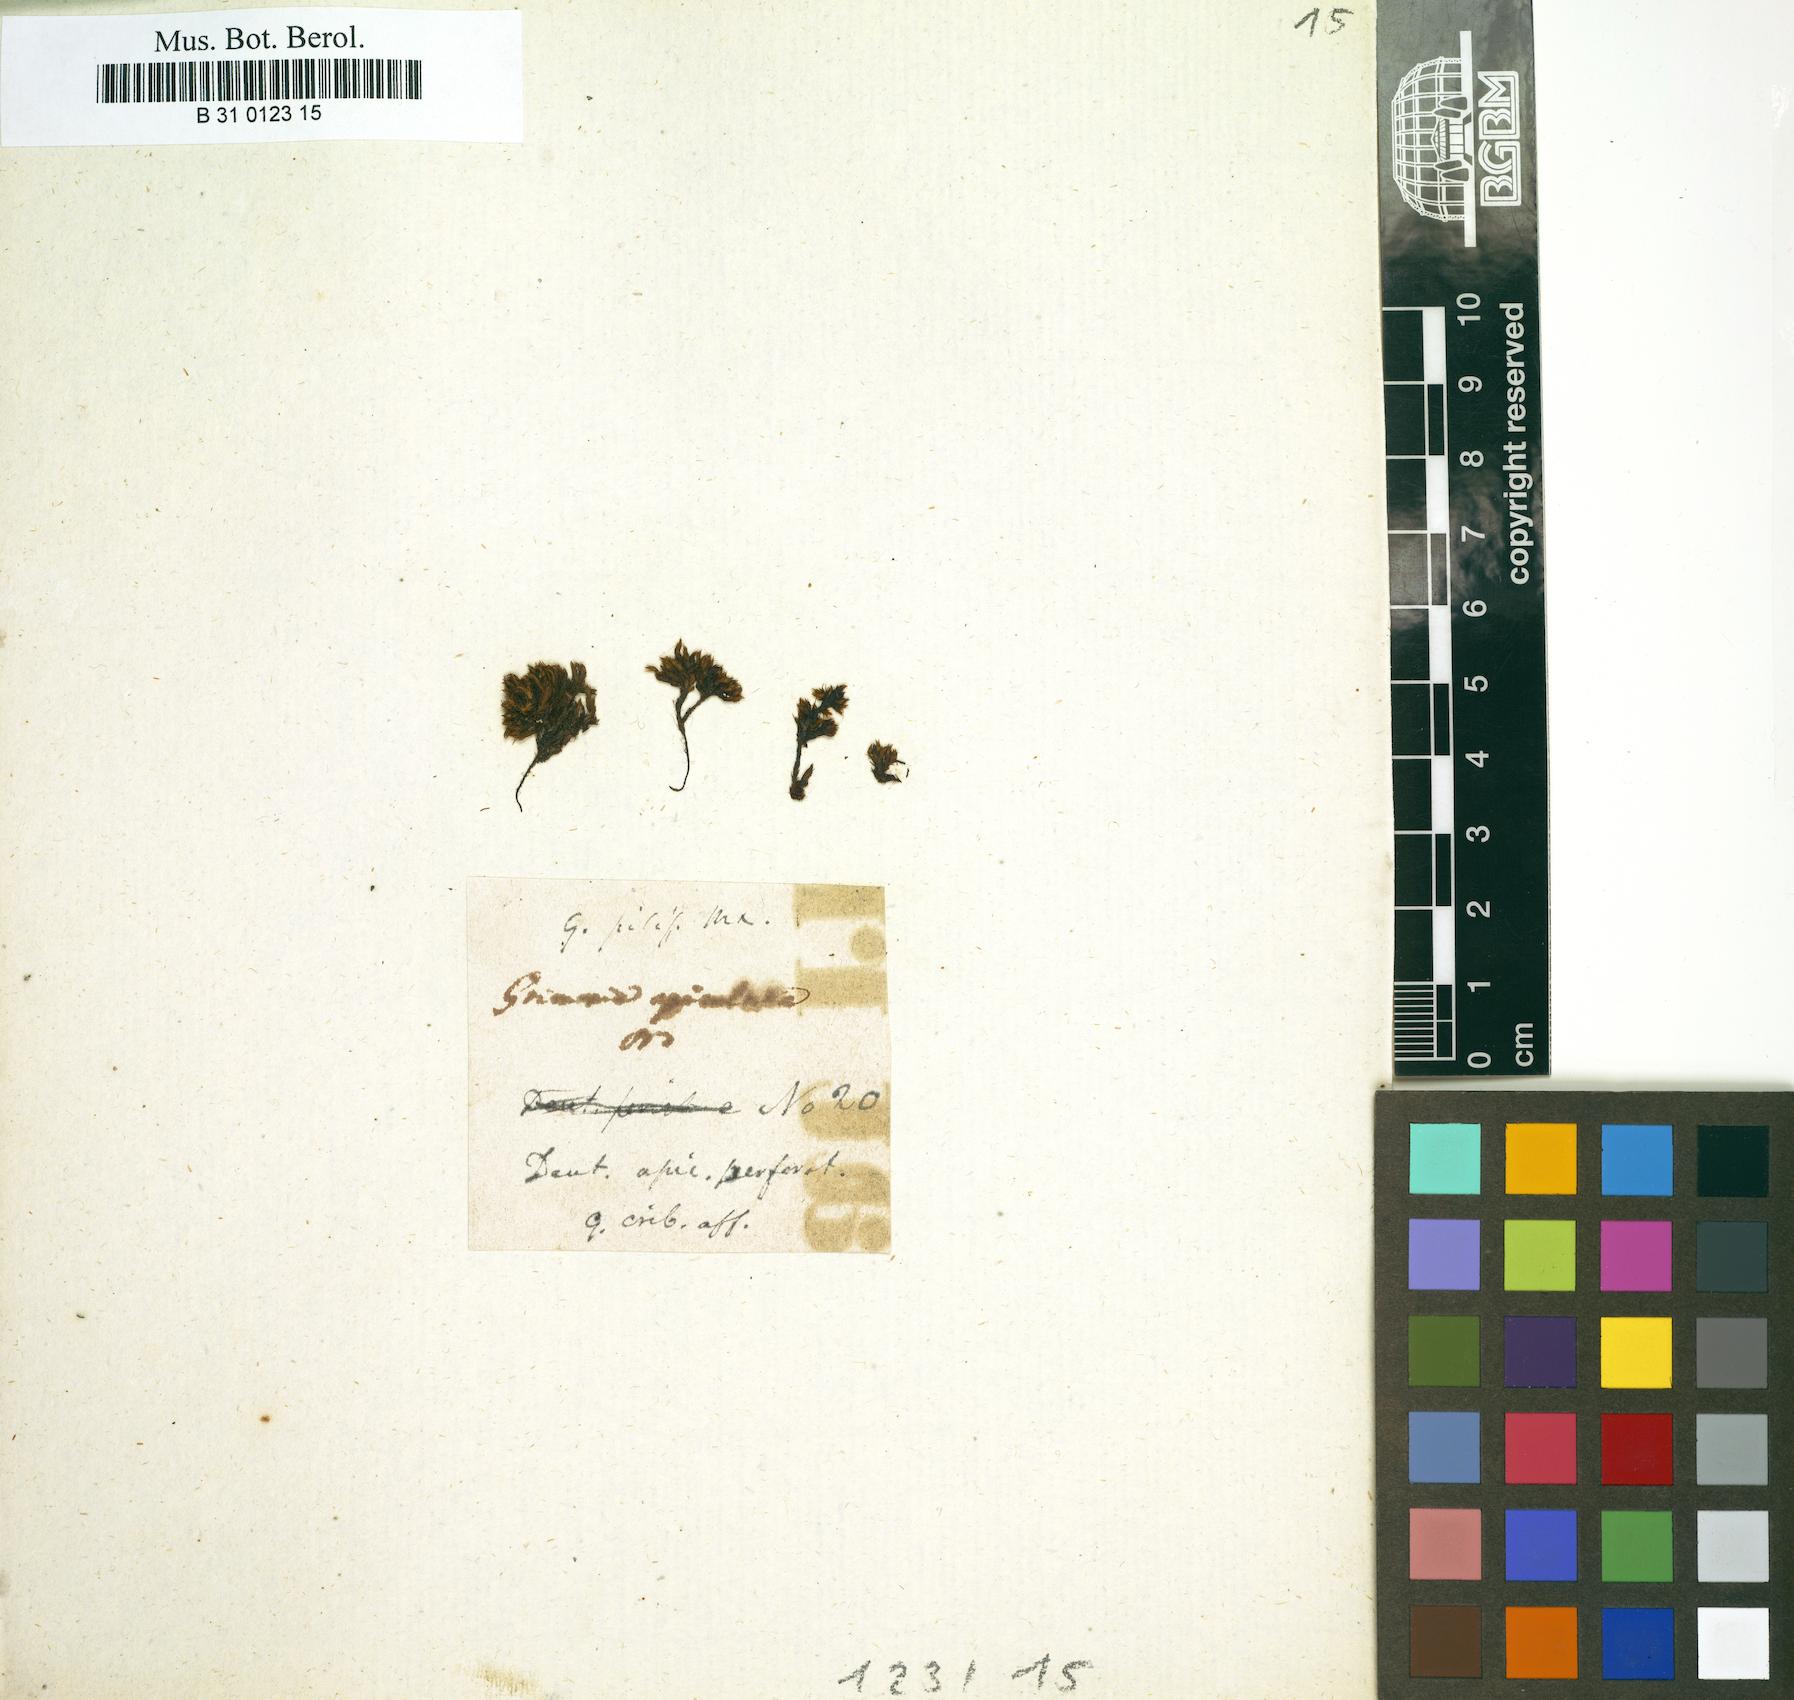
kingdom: Plantae
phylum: Bryophyta
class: Bryopsida
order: Grimmiales
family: Grimmiaceae
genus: Grimmia
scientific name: Grimmia fuscolutea
